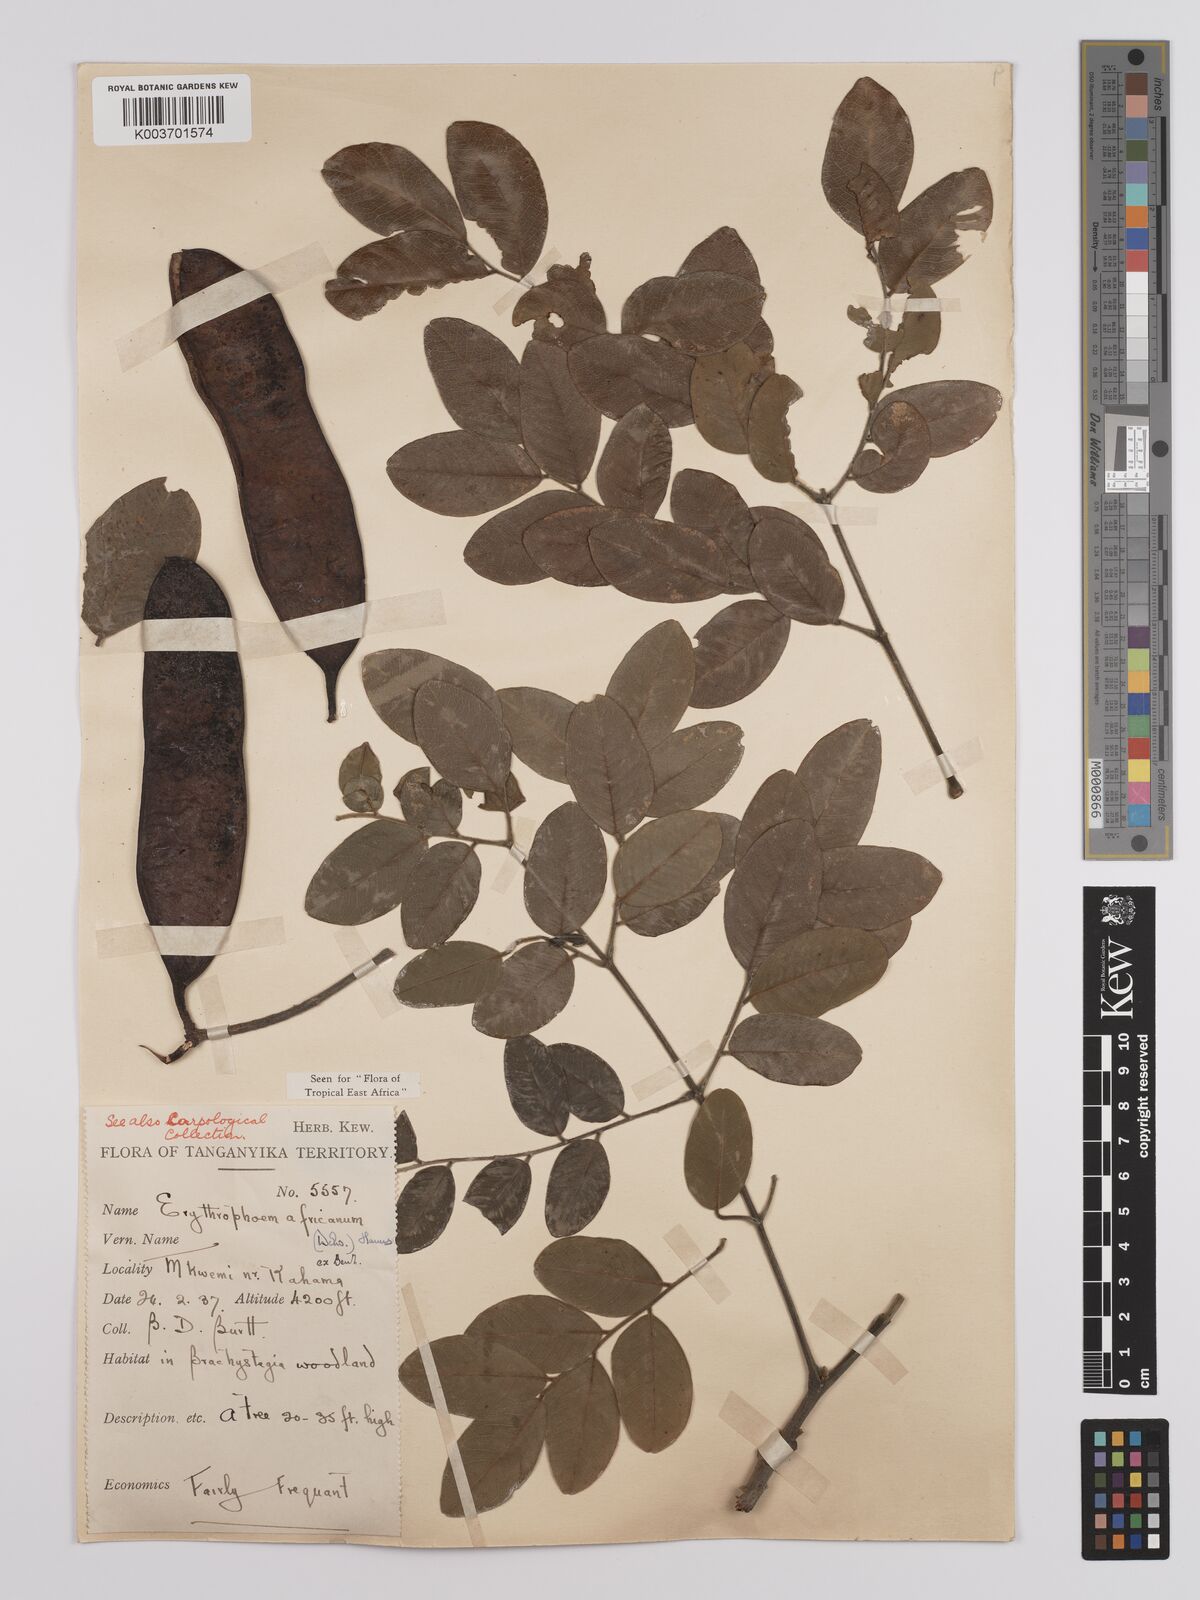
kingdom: Plantae
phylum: Tracheophyta
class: Magnoliopsida
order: Fabales
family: Fabaceae
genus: Erythrophleum
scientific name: Erythrophleum africanum
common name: African blackwood
